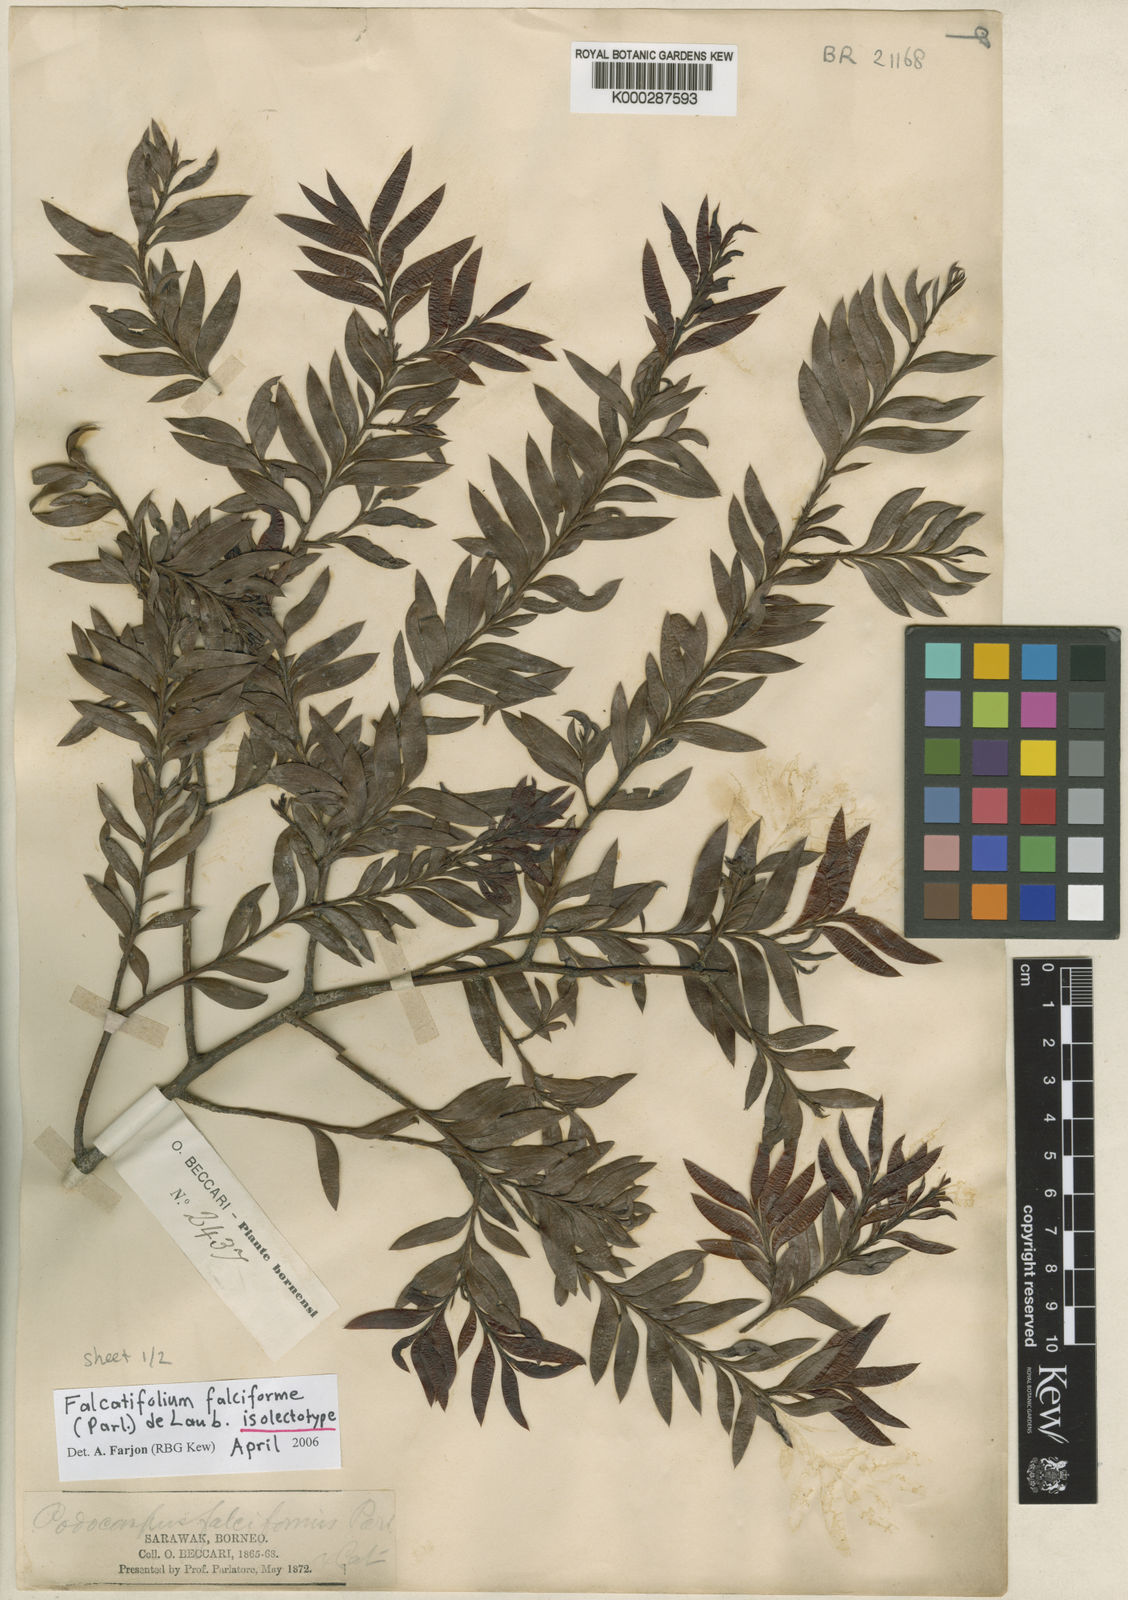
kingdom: Plantae
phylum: Tracheophyta
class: Pinopsida
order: Pinales
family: Podocarpaceae
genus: Falcatifolium
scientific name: Falcatifolium falciforme
